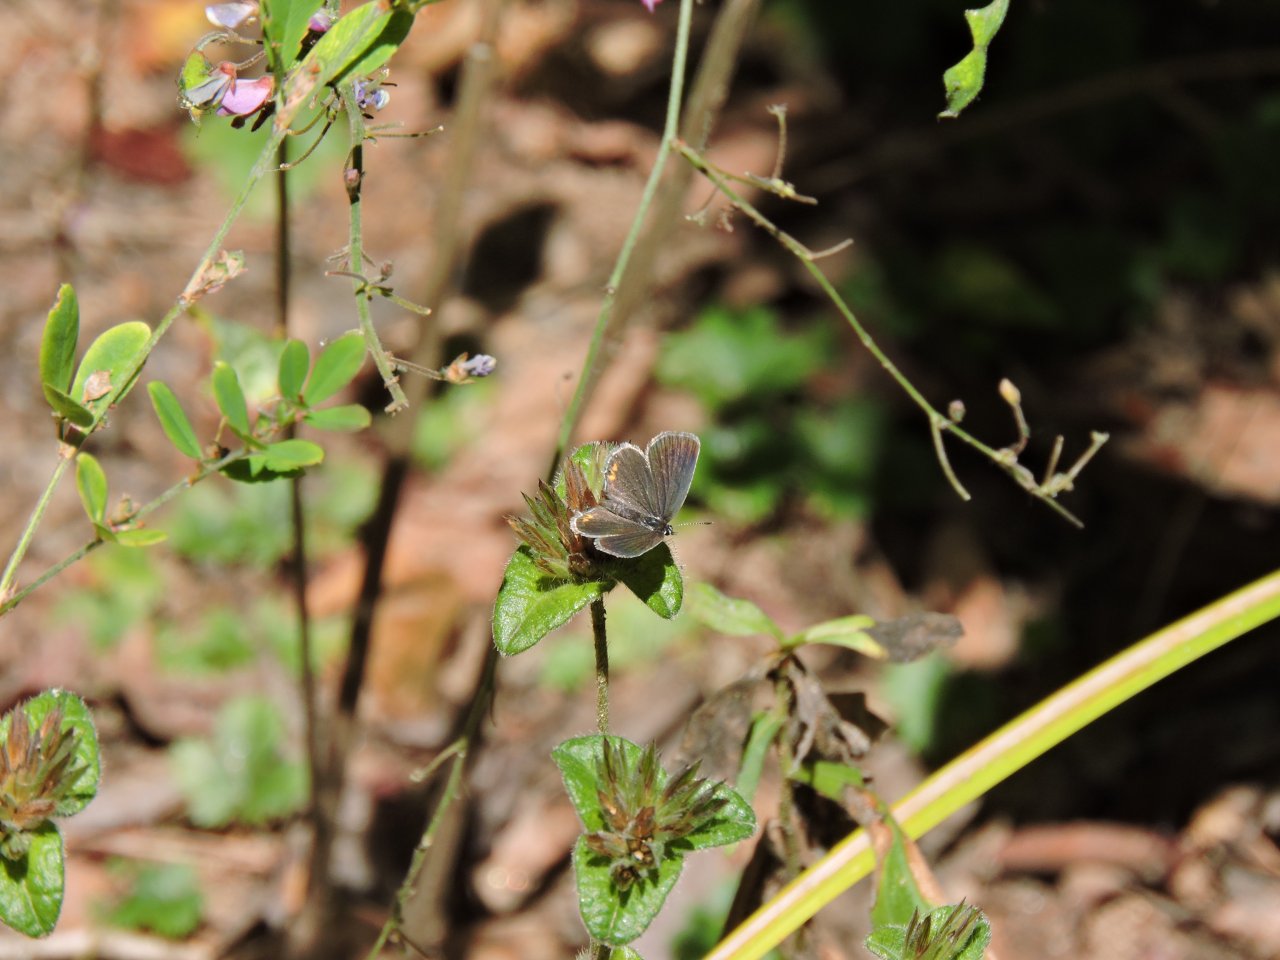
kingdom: Animalia
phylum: Arthropoda
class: Insecta
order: Lepidoptera
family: Lycaenidae
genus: Elkalyce
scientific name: Elkalyce comyntas
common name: Eastern Tailed-Blue
